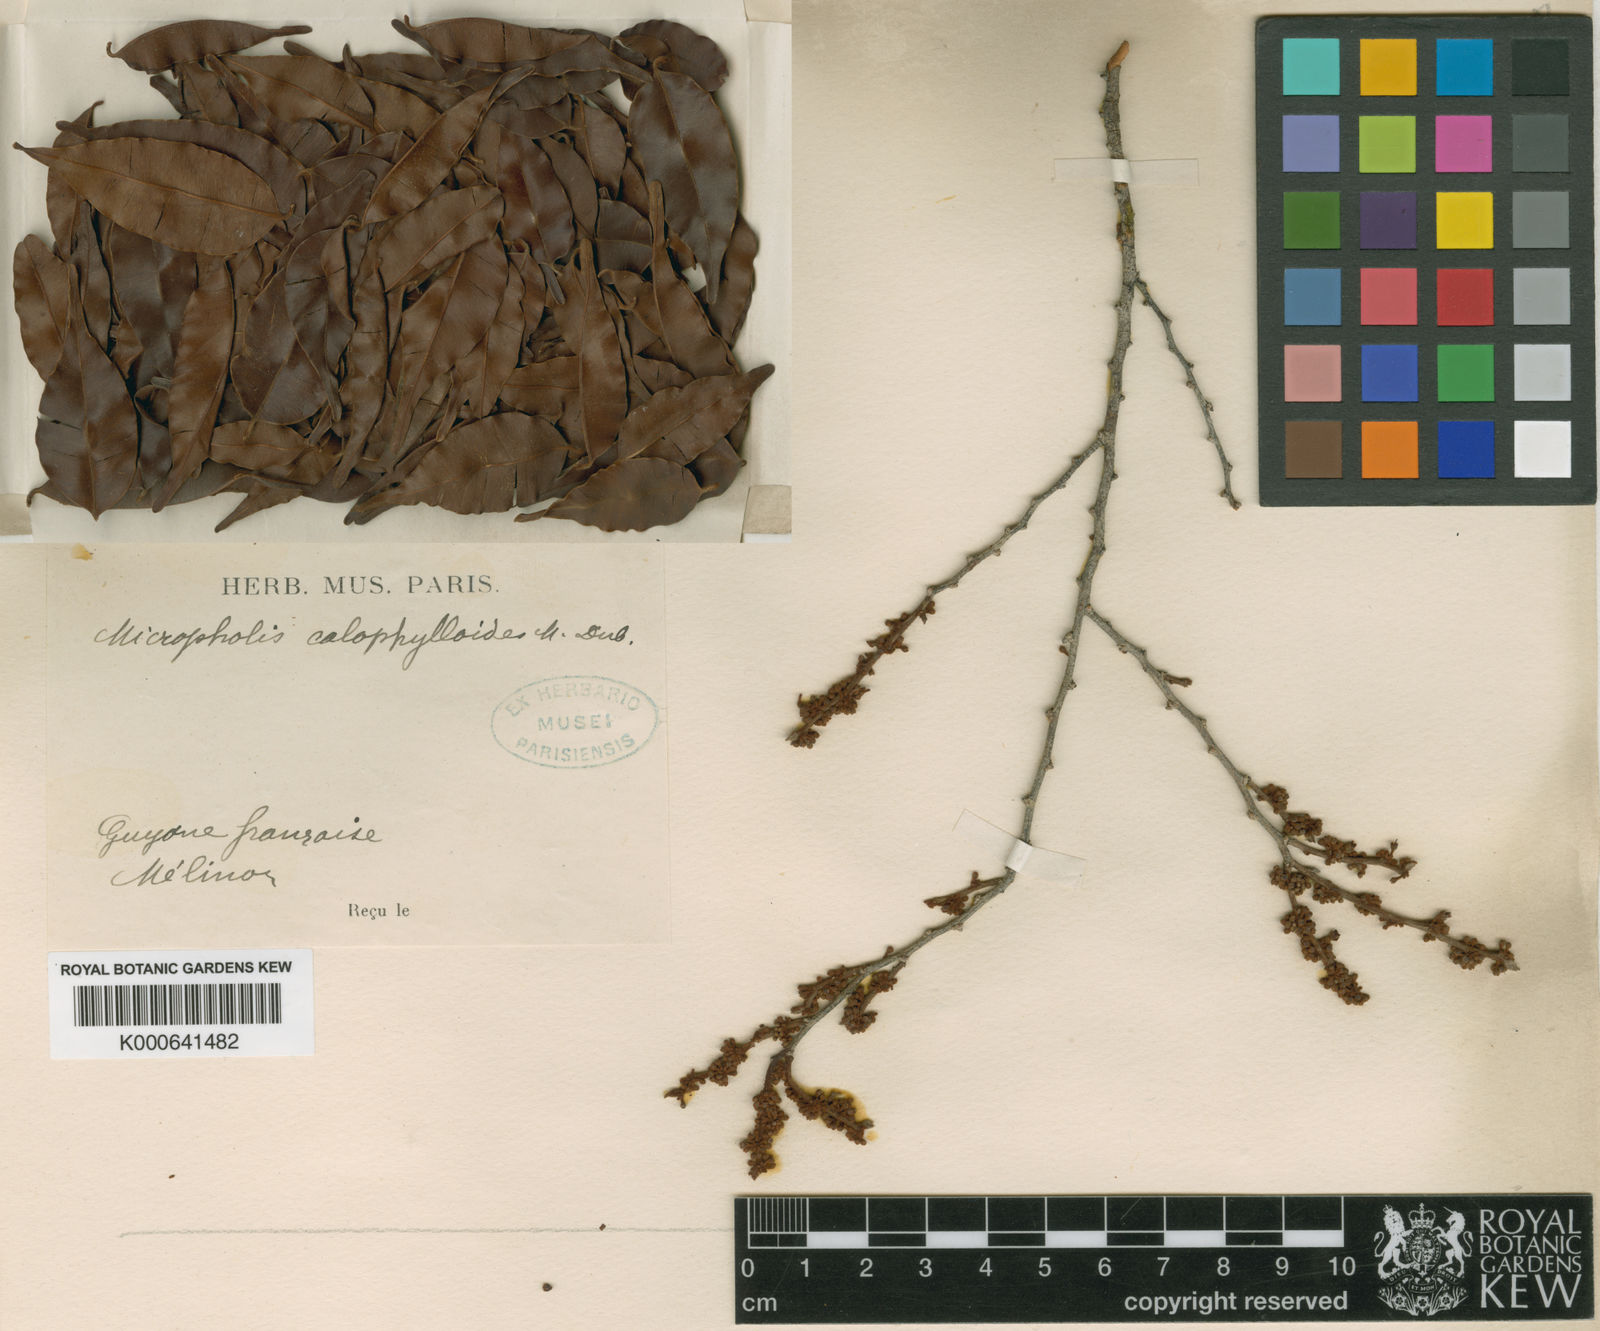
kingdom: Plantae
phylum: Tracheophyta
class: Magnoliopsida
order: Ericales
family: Sapotaceae
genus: Micropholis
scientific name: Micropholis venulosa
